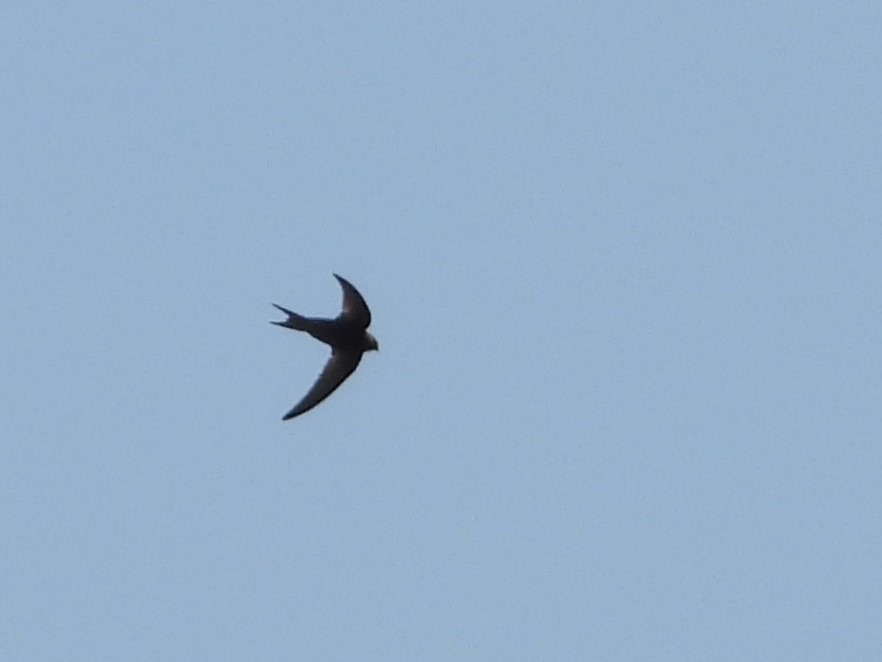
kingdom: Animalia
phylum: Chordata
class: Aves
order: Apodiformes
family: Apodidae
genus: Apus
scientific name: Apus apus
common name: Mursejler
